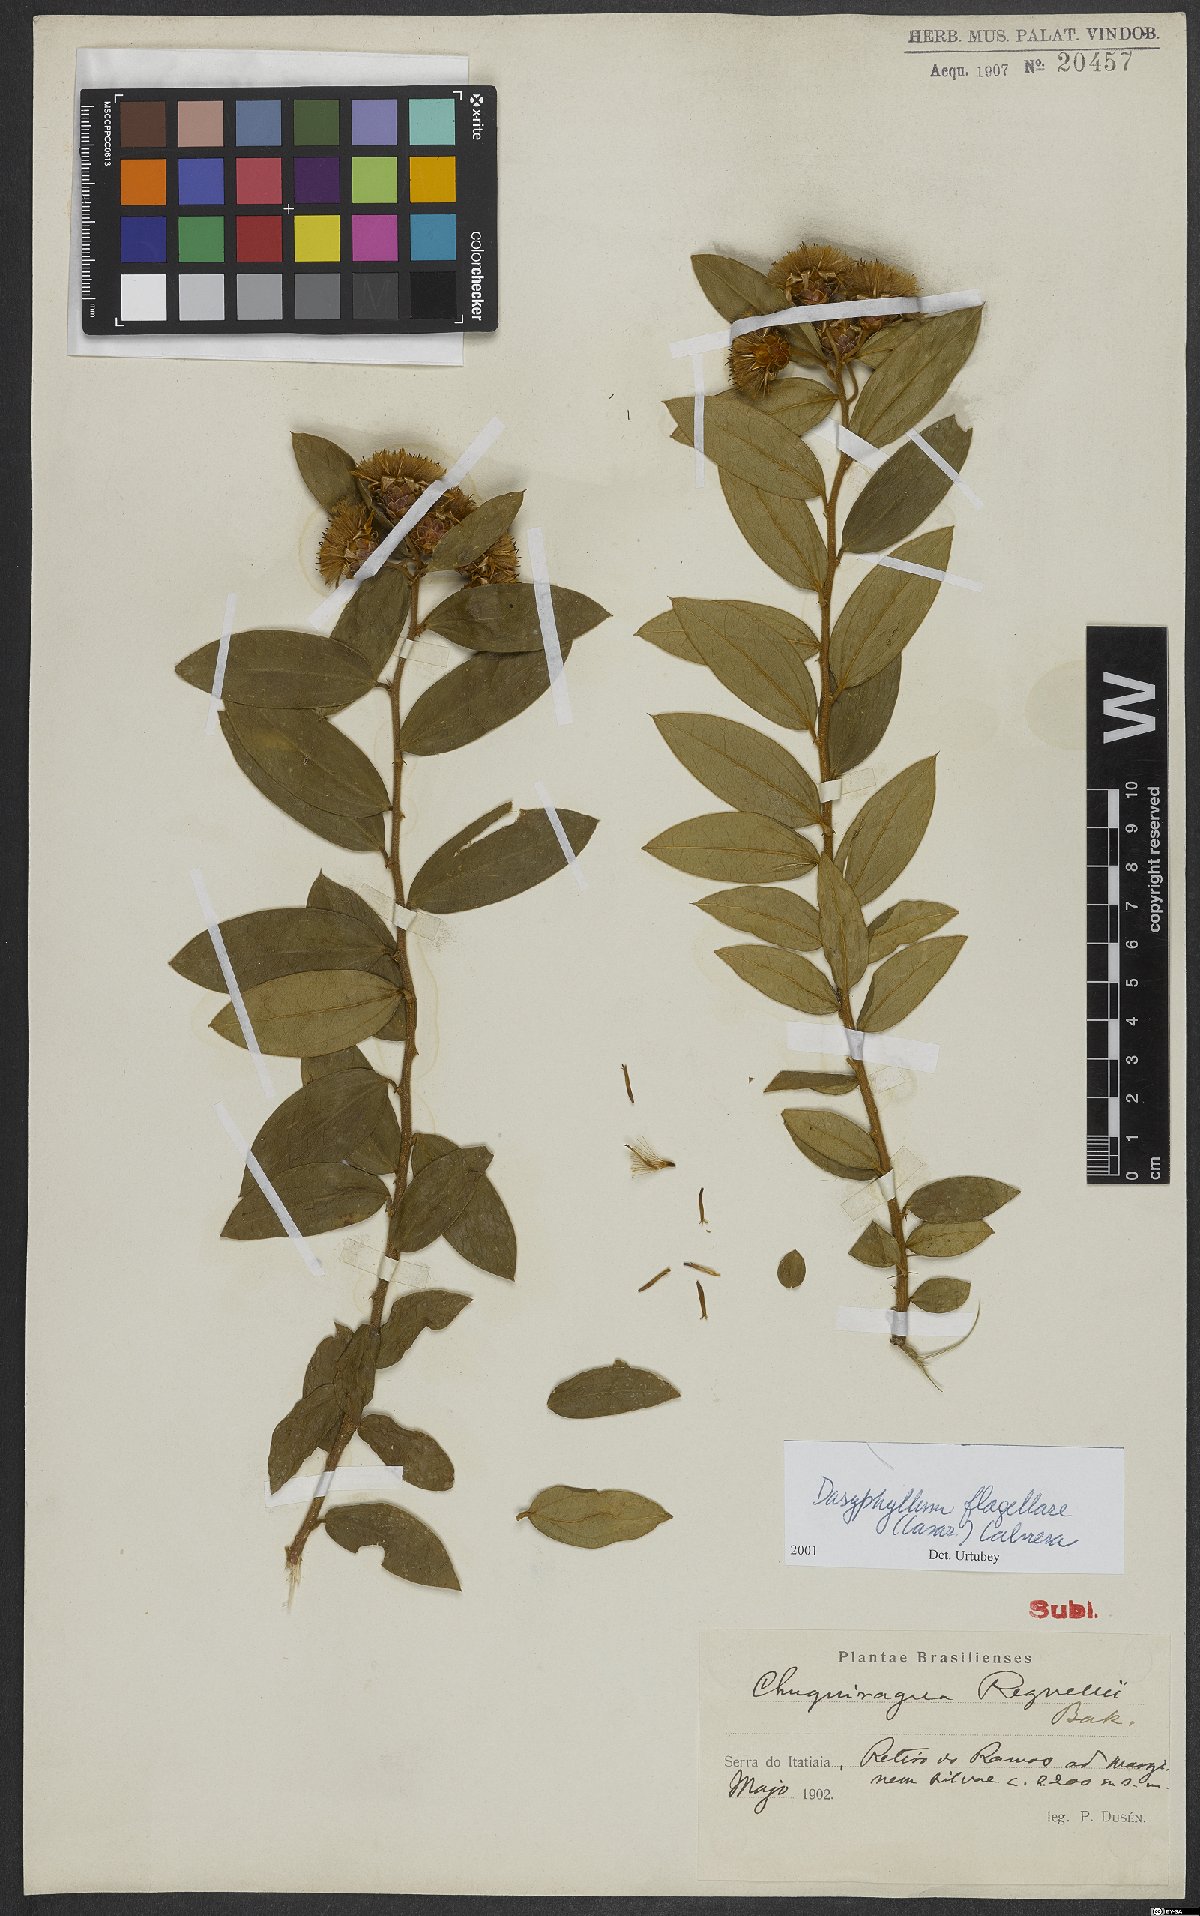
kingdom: Plantae
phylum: Tracheophyta
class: Magnoliopsida
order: Asterales
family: Asteraceae
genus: Dasyphyllum
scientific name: Dasyphyllum flagellare
